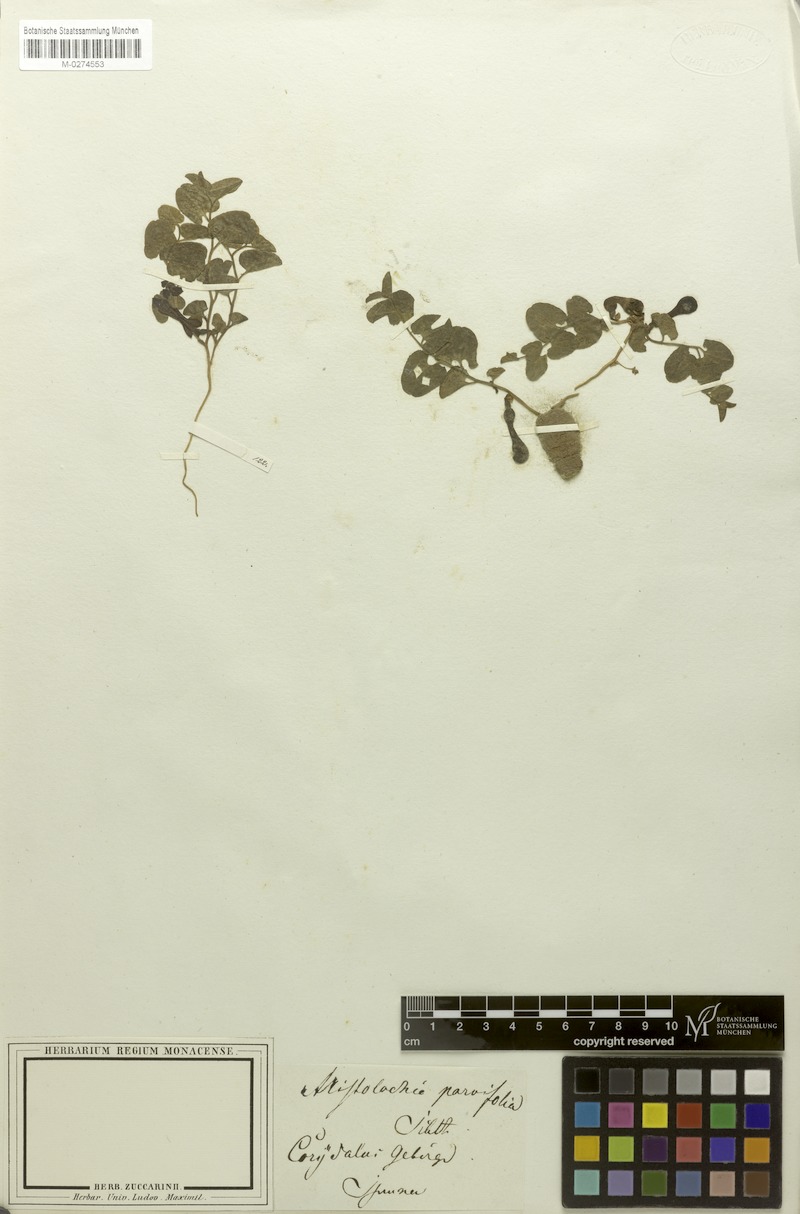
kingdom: Plantae
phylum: Tracheophyta
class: Magnoliopsida
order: Piperales
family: Aristolochiaceae
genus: Aristolochia
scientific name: Aristolochia microstoma
